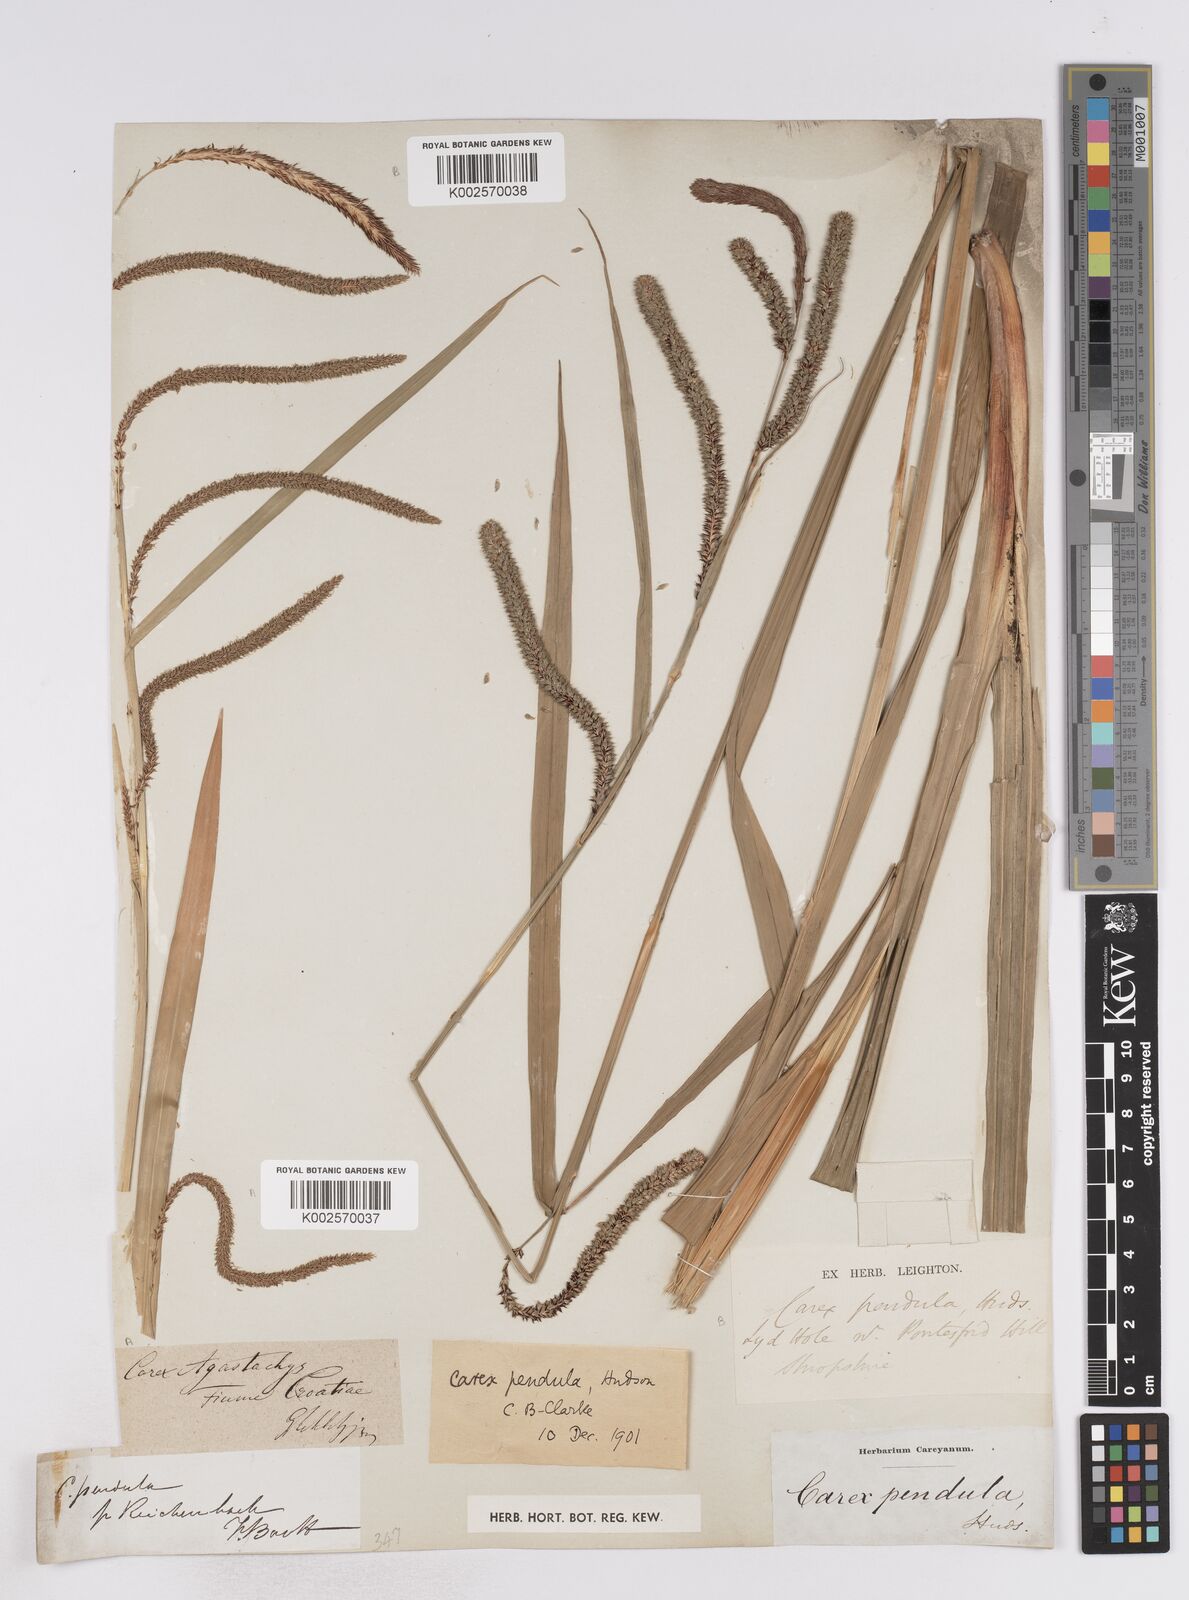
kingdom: Plantae
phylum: Tracheophyta
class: Liliopsida
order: Poales
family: Cyperaceae
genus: Carex
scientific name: Carex pendula
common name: Pendulous sedge
